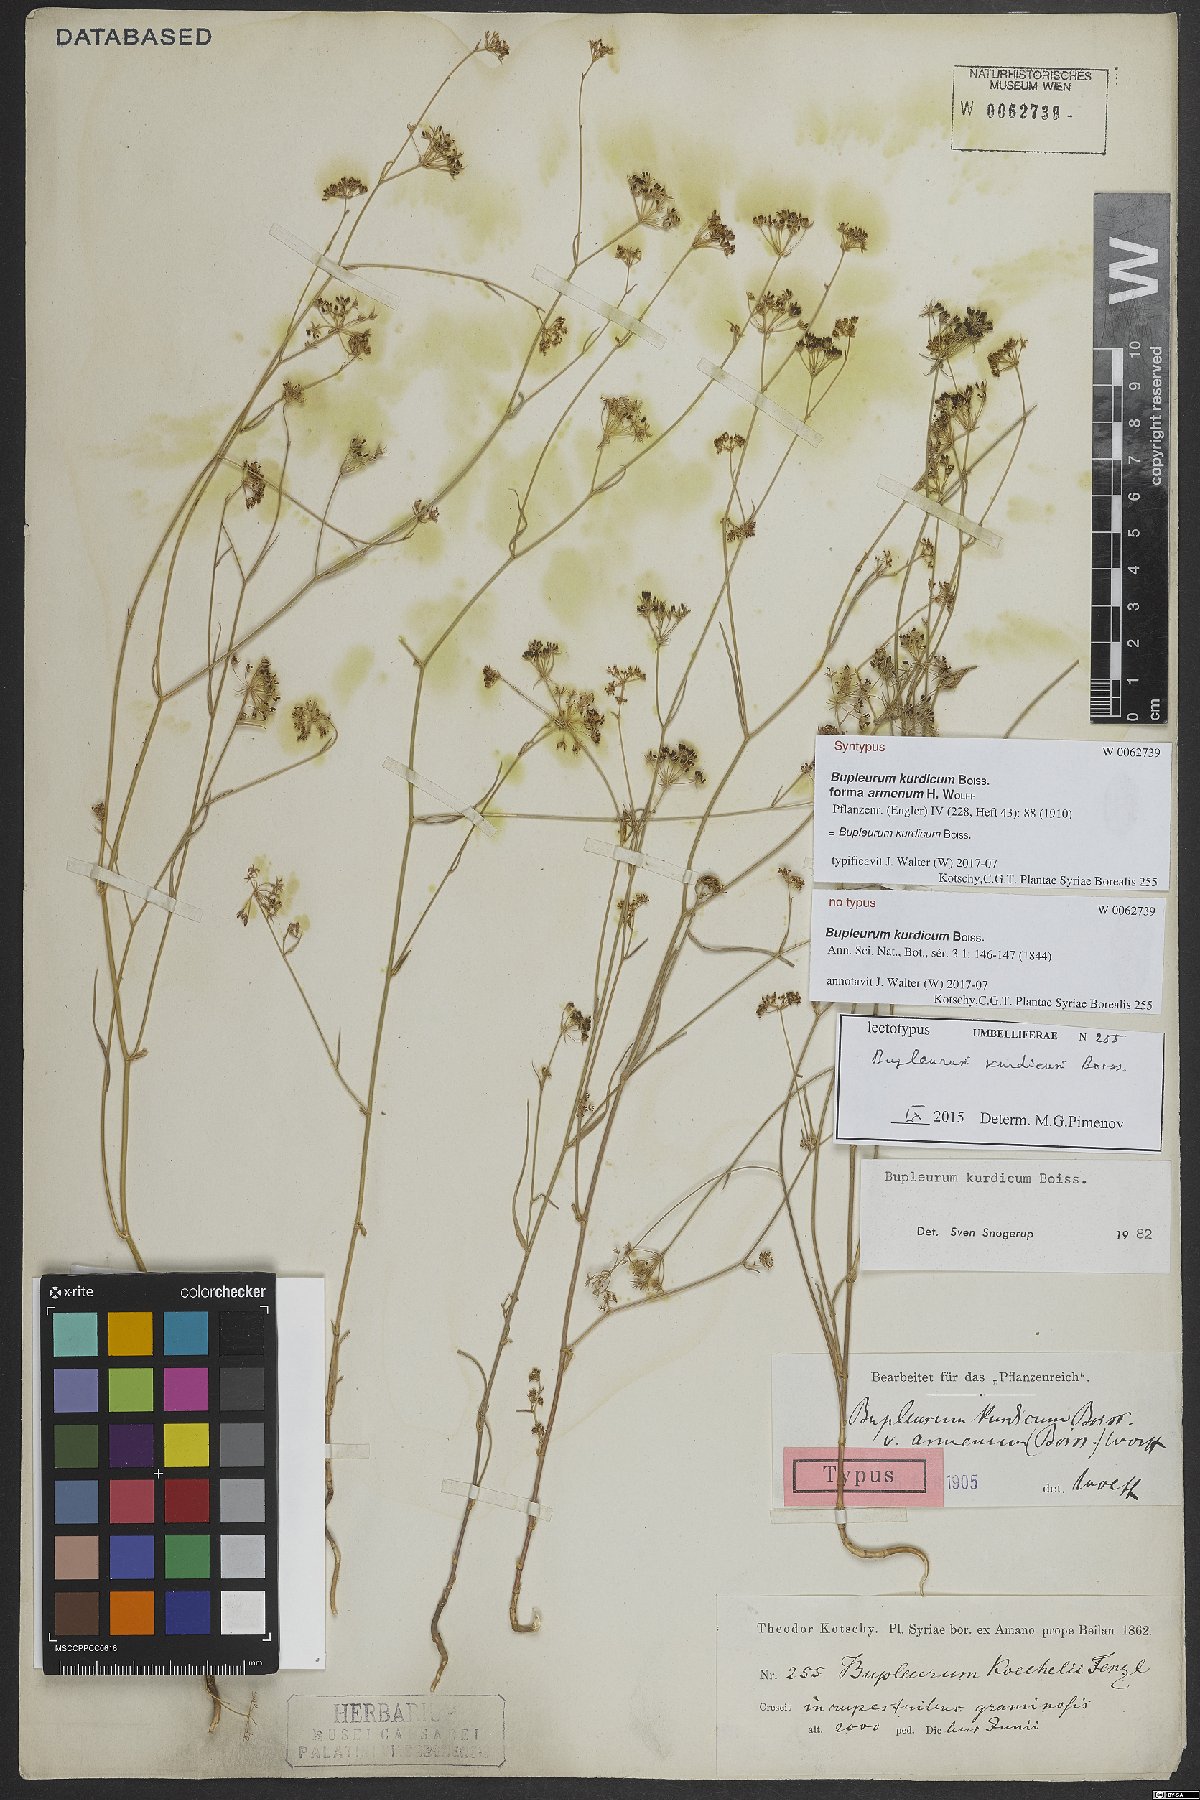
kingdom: Plantae
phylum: Tracheophyta
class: Magnoliopsida
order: Apiales
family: Apiaceae
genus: Bupleurum
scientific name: Bupleurum kurdicum
